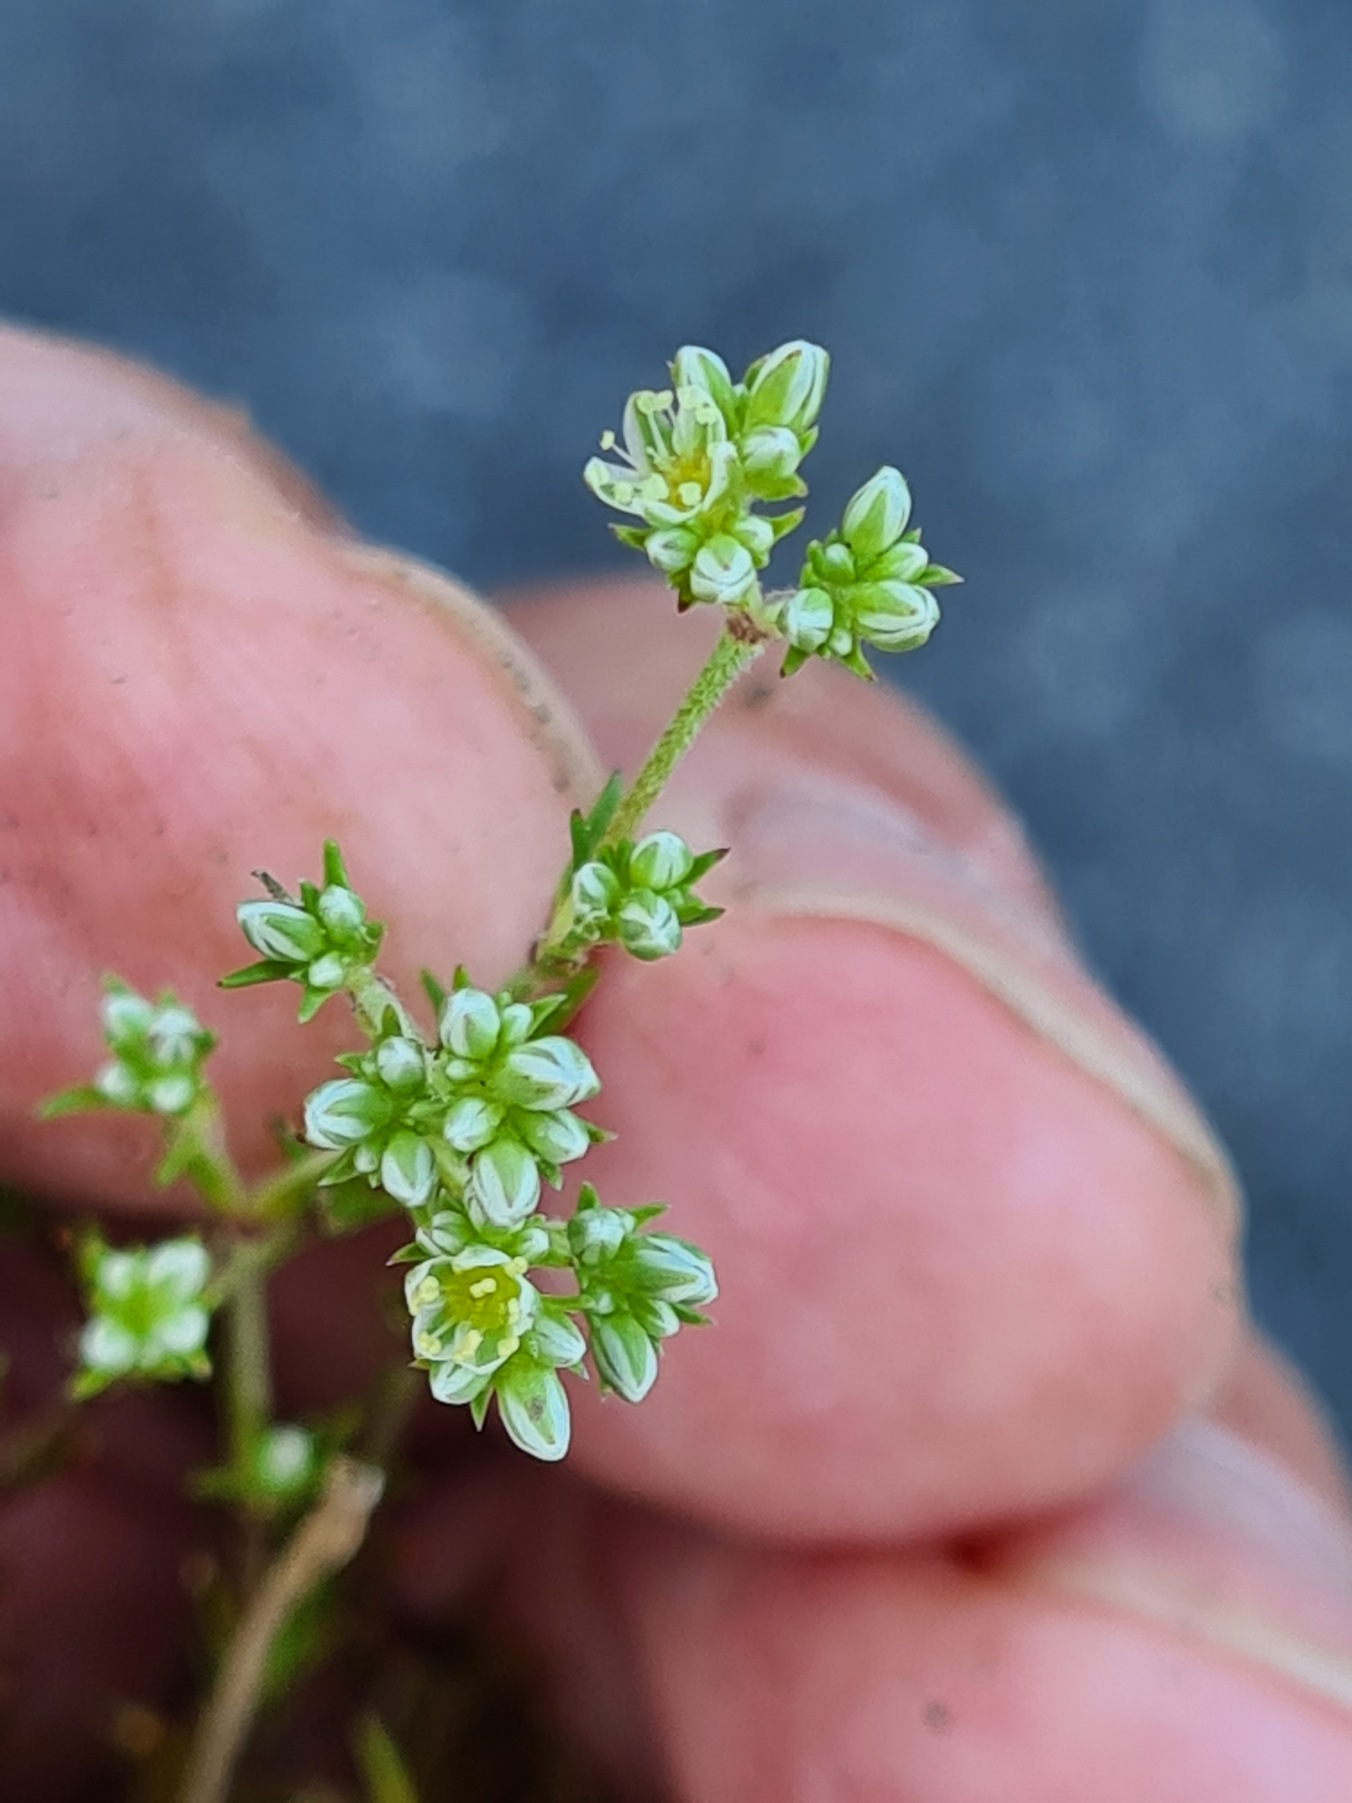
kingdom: Plantae
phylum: Tracheophyta
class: Magnoliopsida
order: Caryophyllales
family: Caryophyllaceae
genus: Scleranthus
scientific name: Scleranthus perennis
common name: Flerårig knavel
